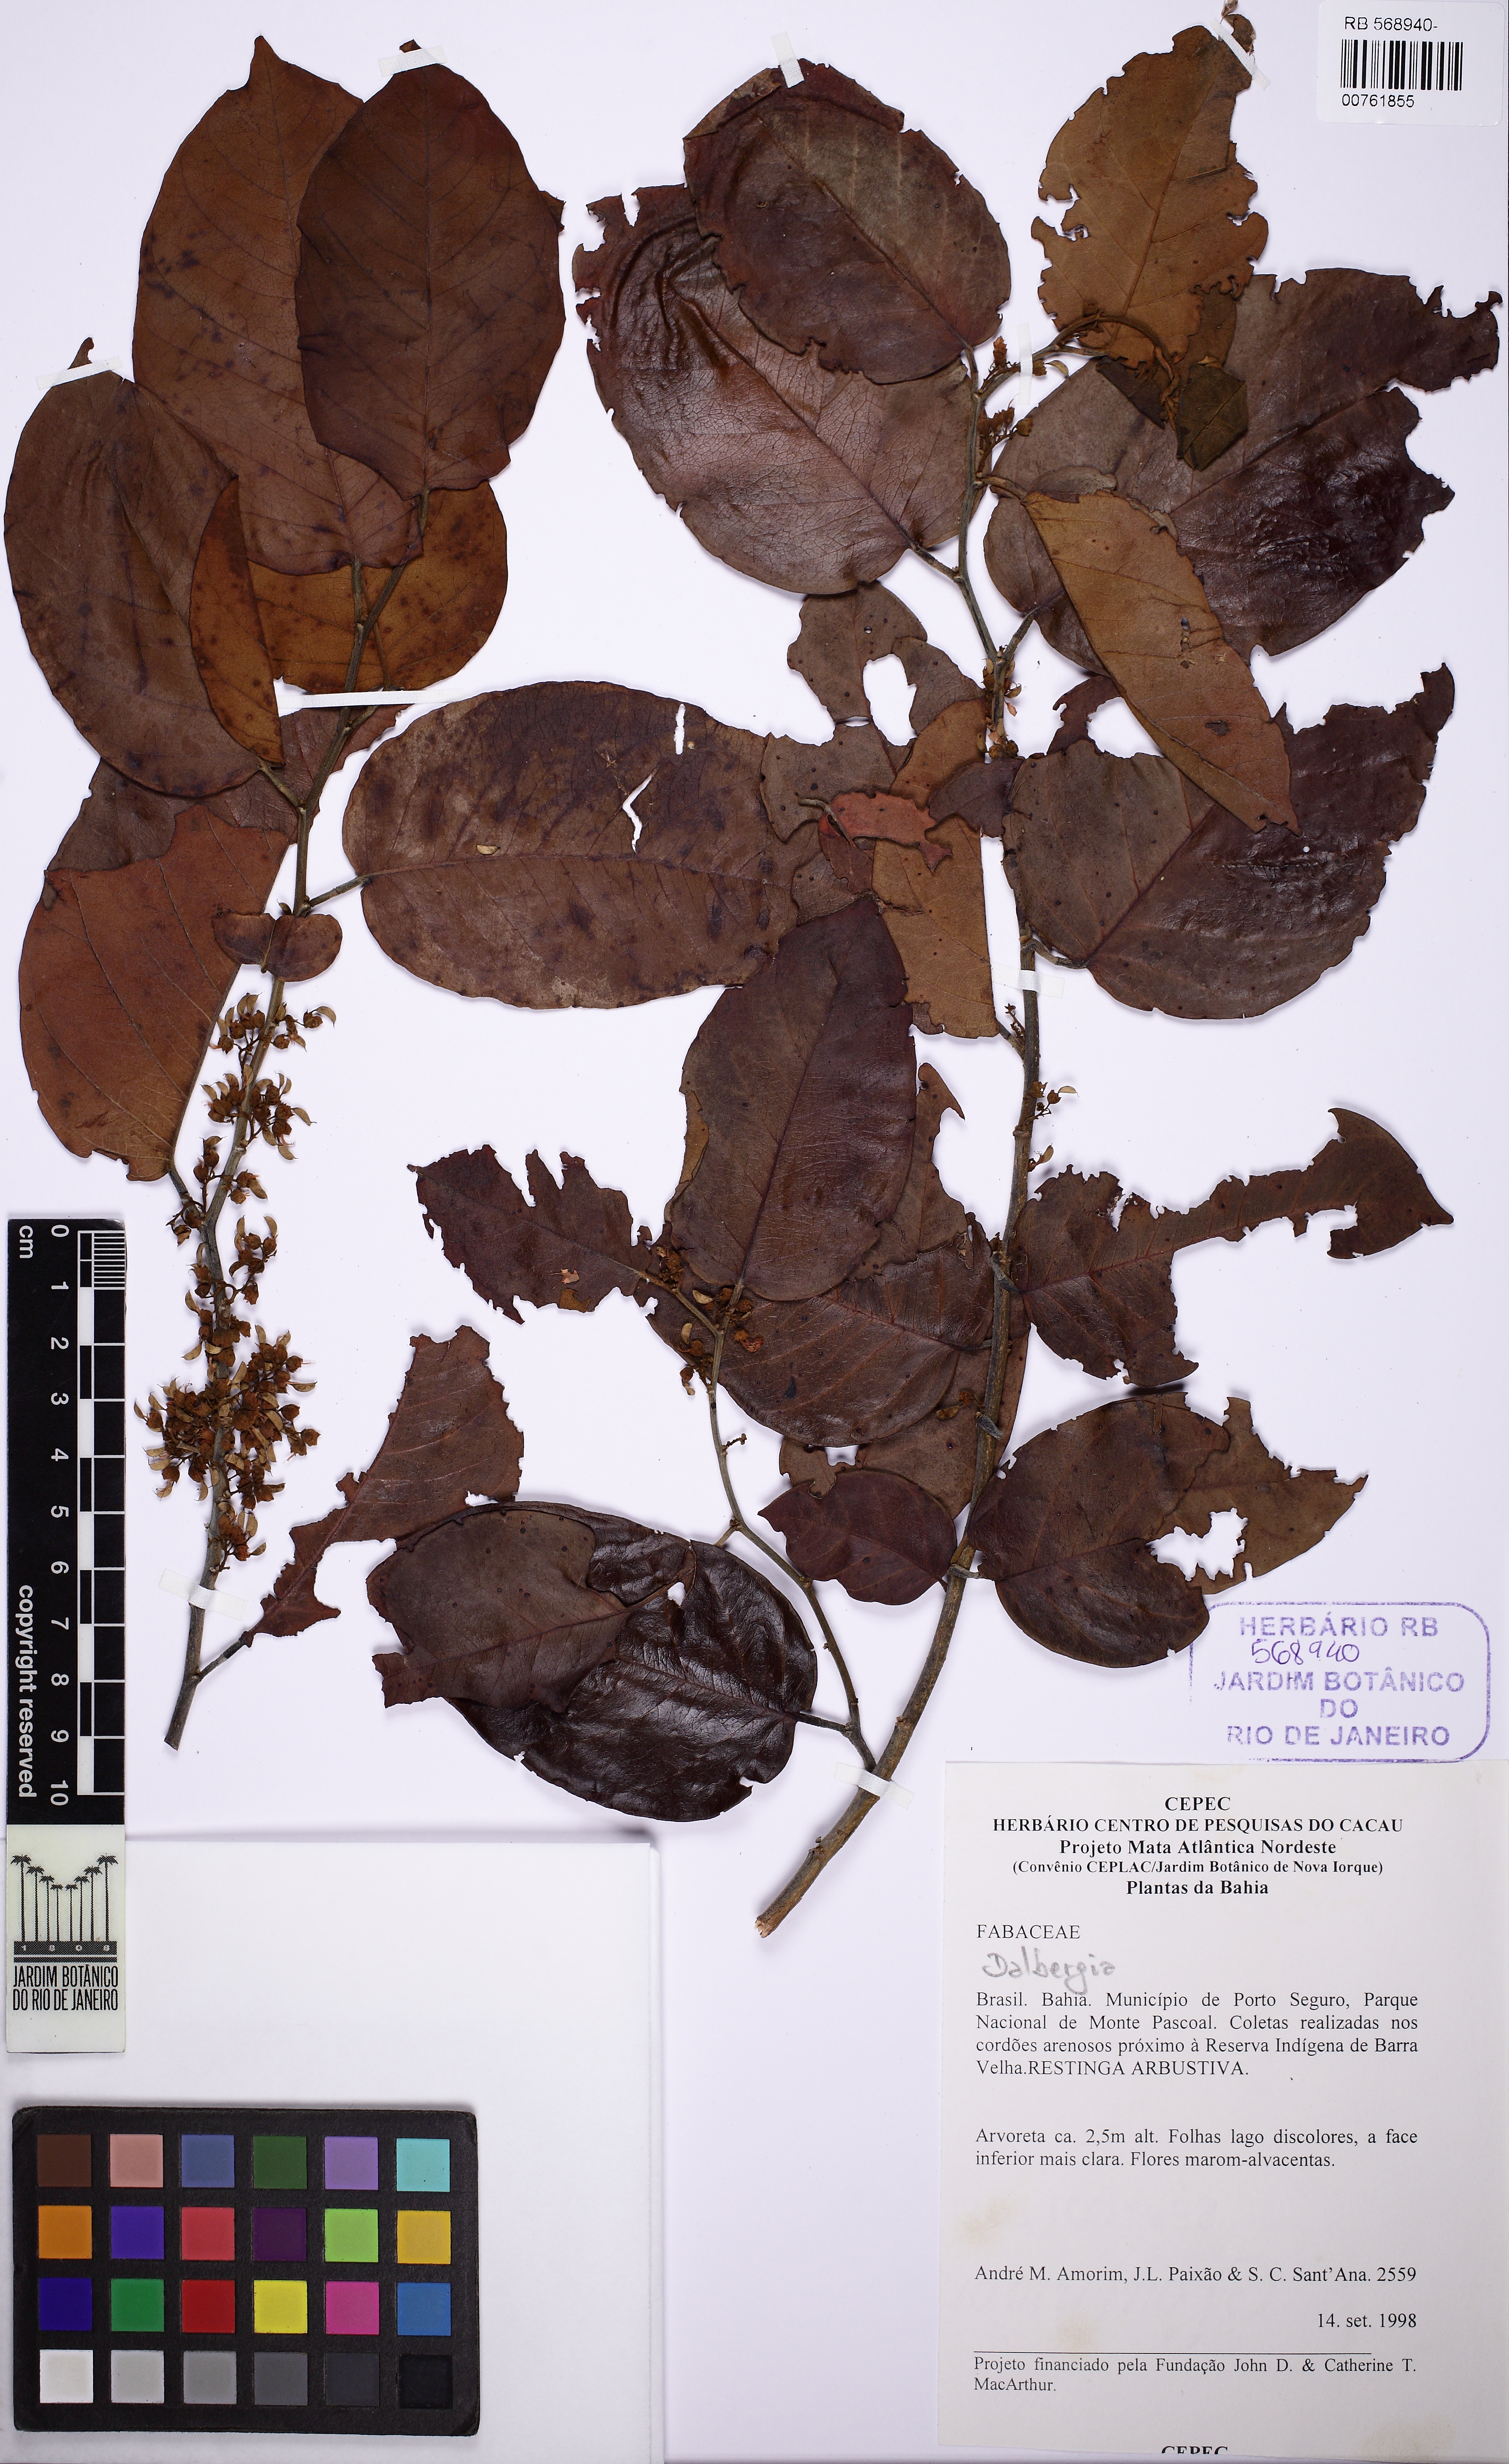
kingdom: Plantae
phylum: Tracheophyta
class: Magnoliopsida
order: Fabales
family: Fabaceae
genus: Dalbergia
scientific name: Dalbergia
